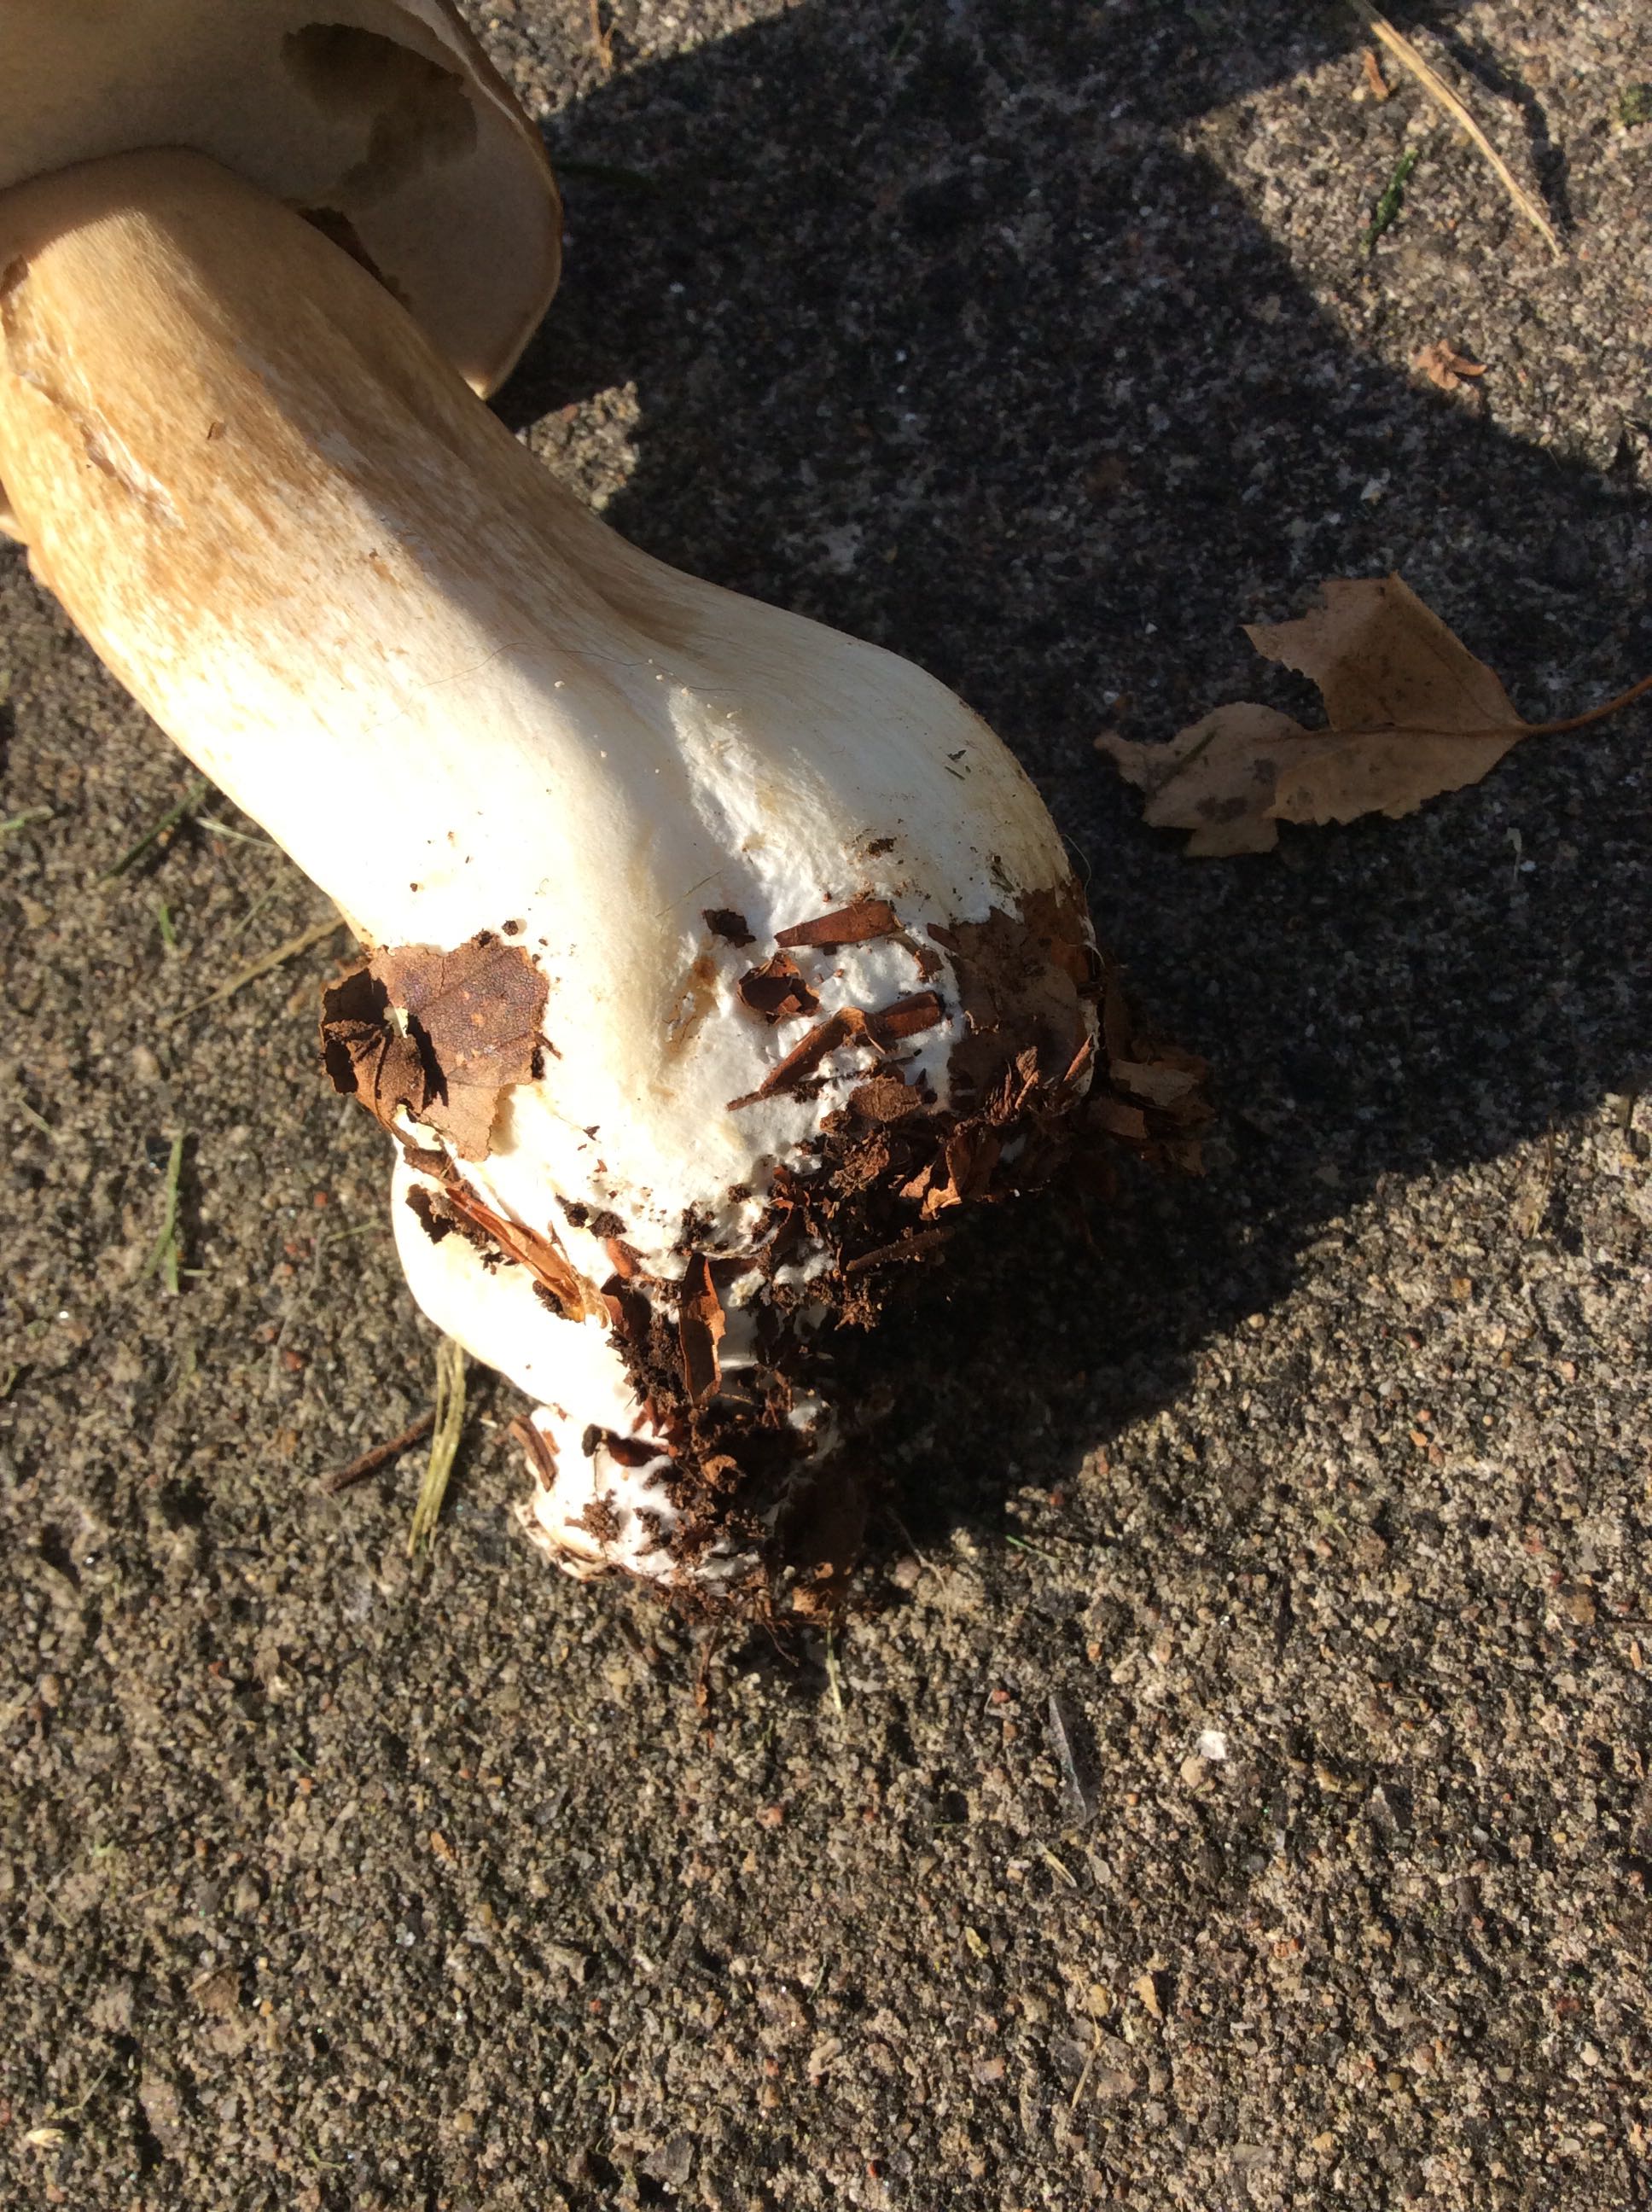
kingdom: Fungi
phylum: Basidiomycota
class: Agaricomycetes
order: Boletales
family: Boletaceae
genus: Boletus
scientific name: Boletus edulis
